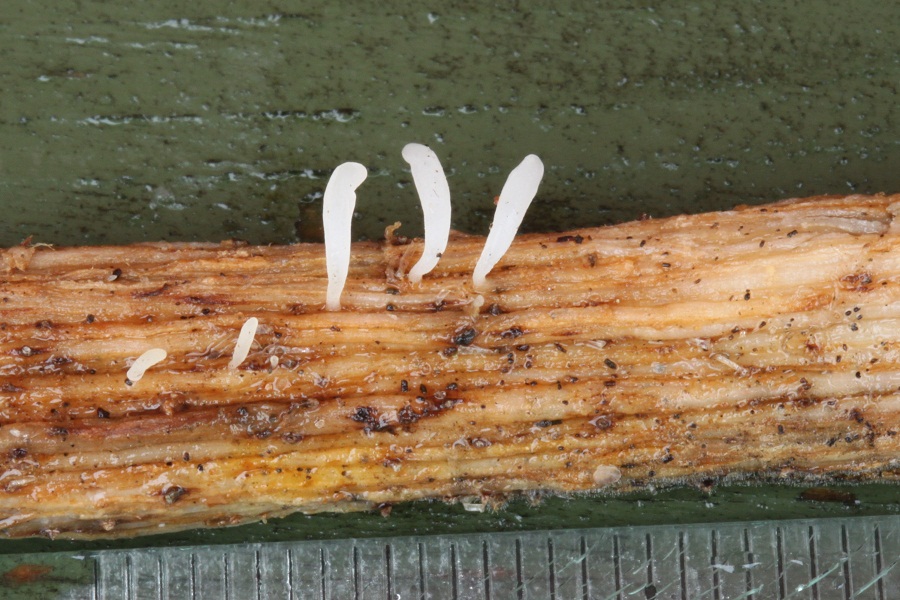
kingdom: Fungi
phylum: Basidiomycota
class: Agaricomycetes
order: Agaricales
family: Typhulaceae
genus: Typhula
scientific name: Typhula uncialis
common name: sej trådkølle
